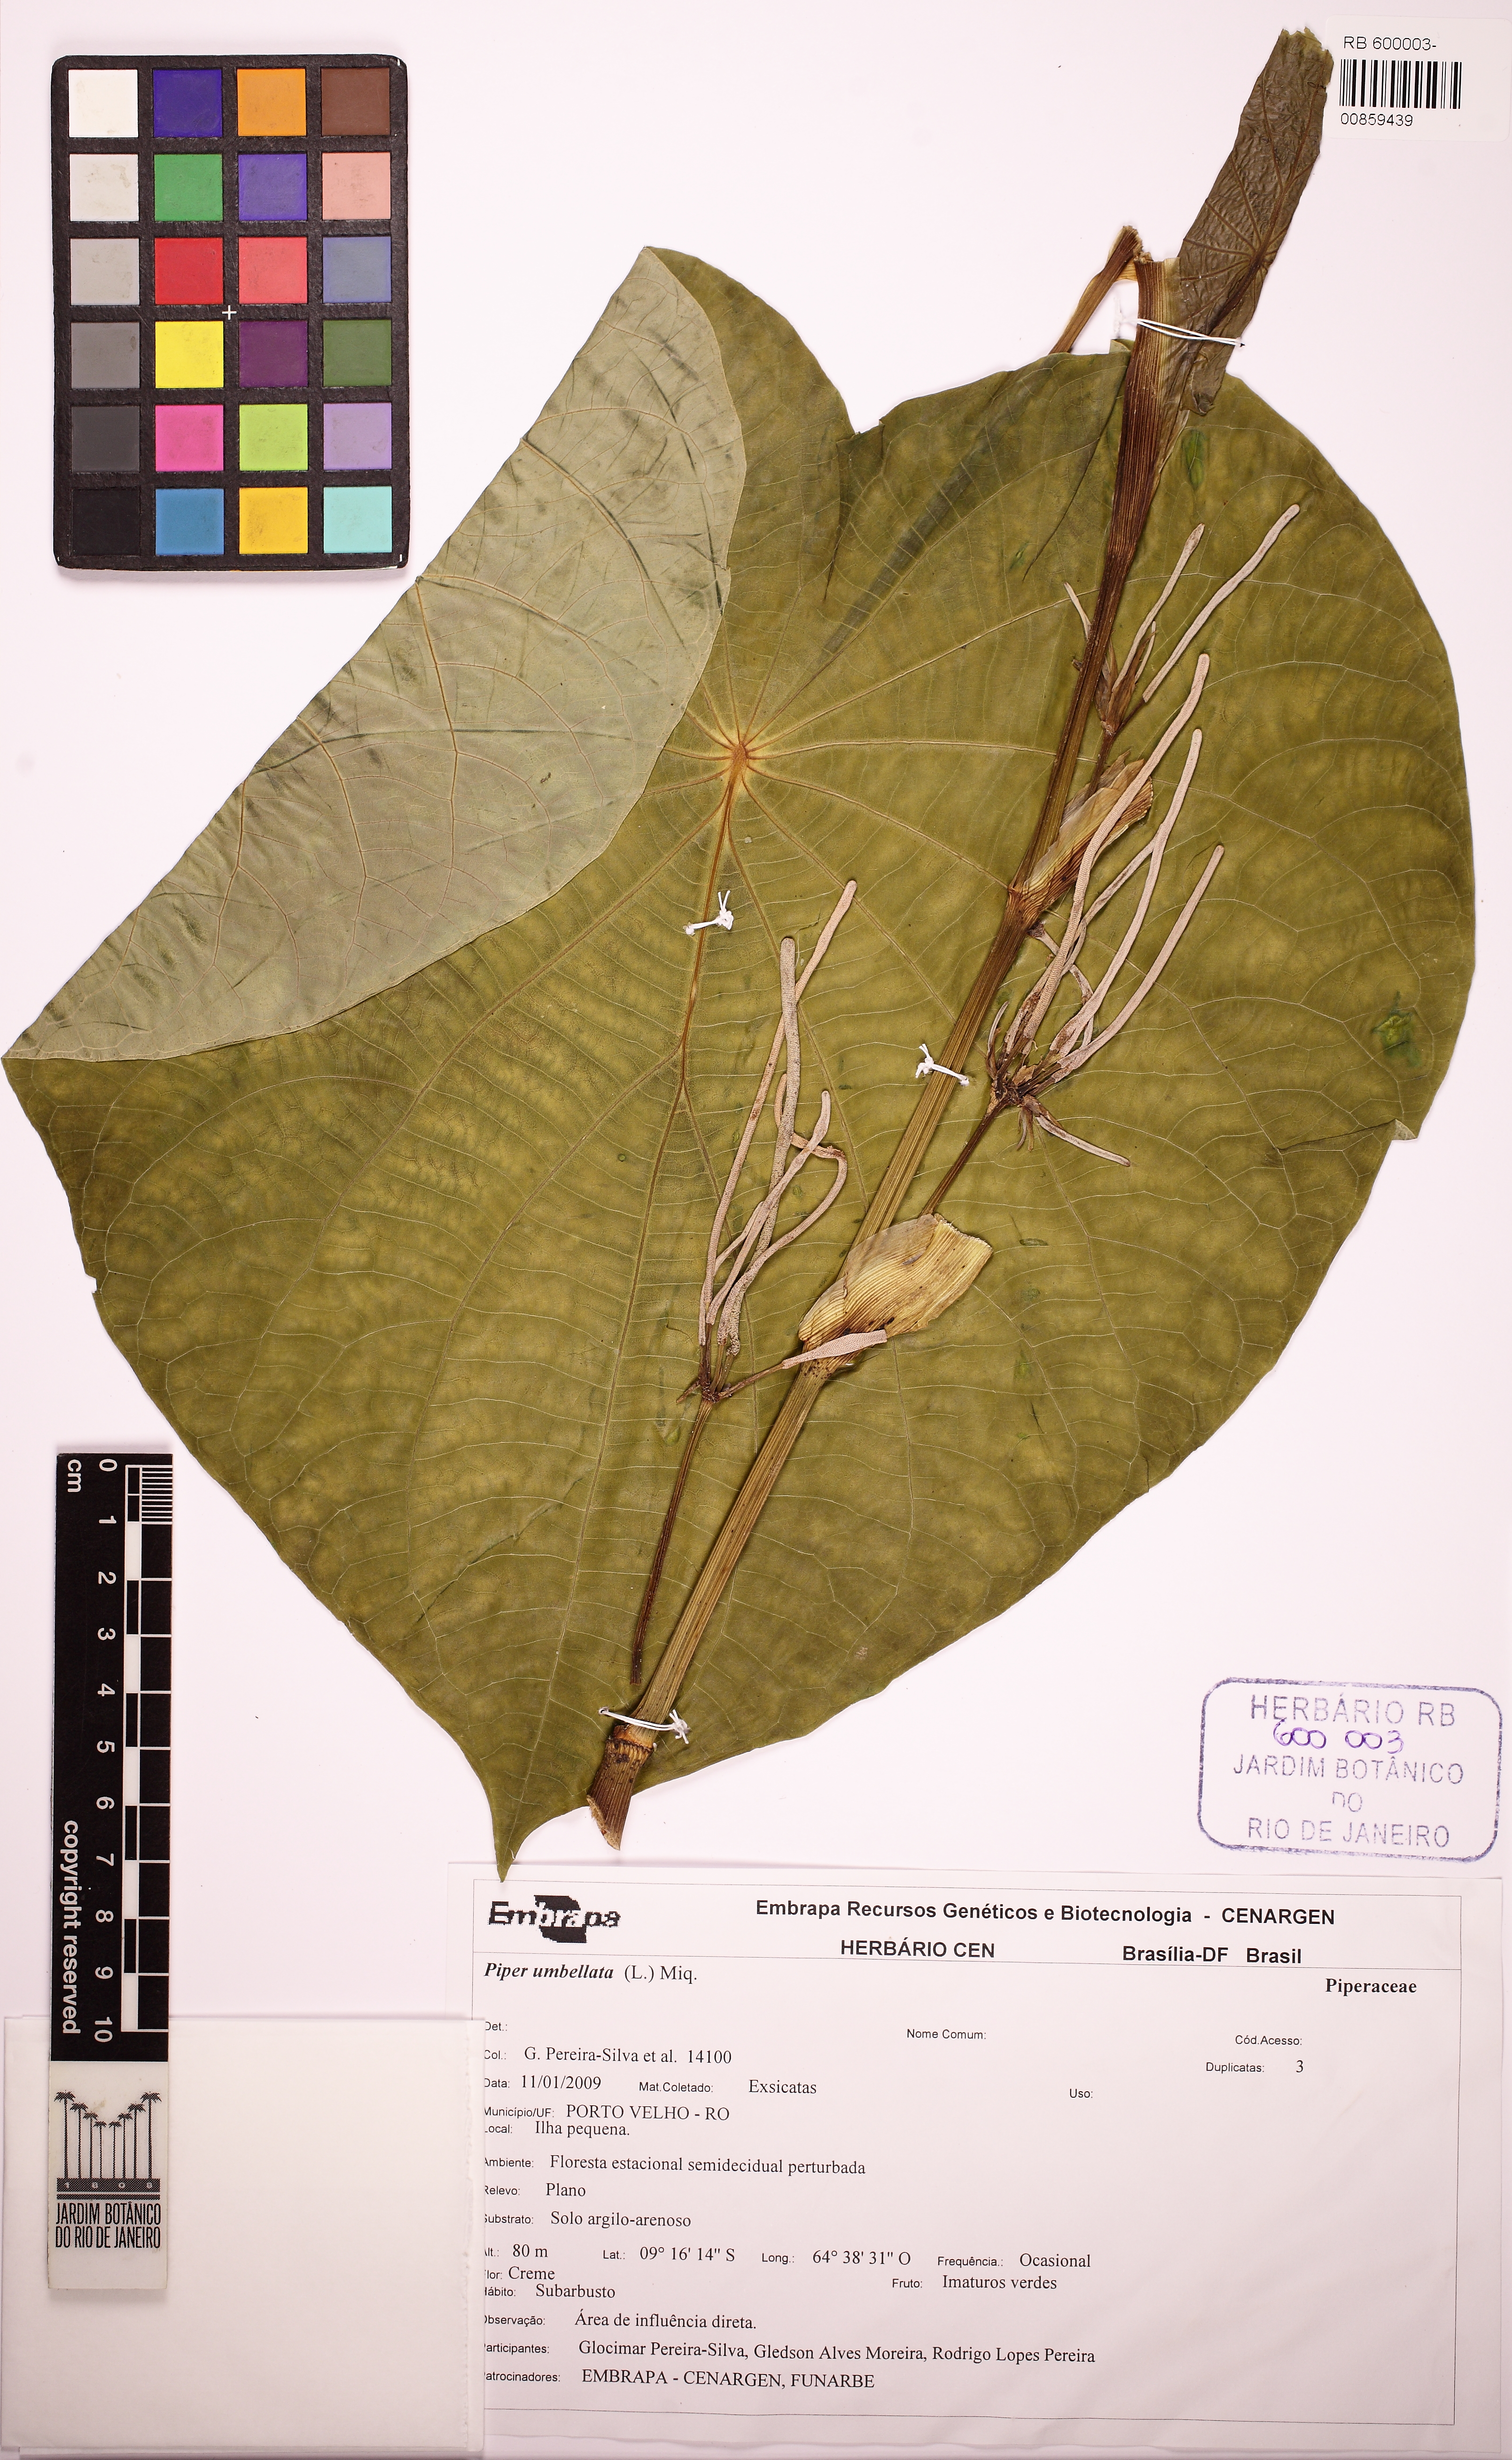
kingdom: Plantae
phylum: Tracheophyta
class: Magnoliopsida
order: Piperales
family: Piperaceae
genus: Piper
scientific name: Piper umbellatum
